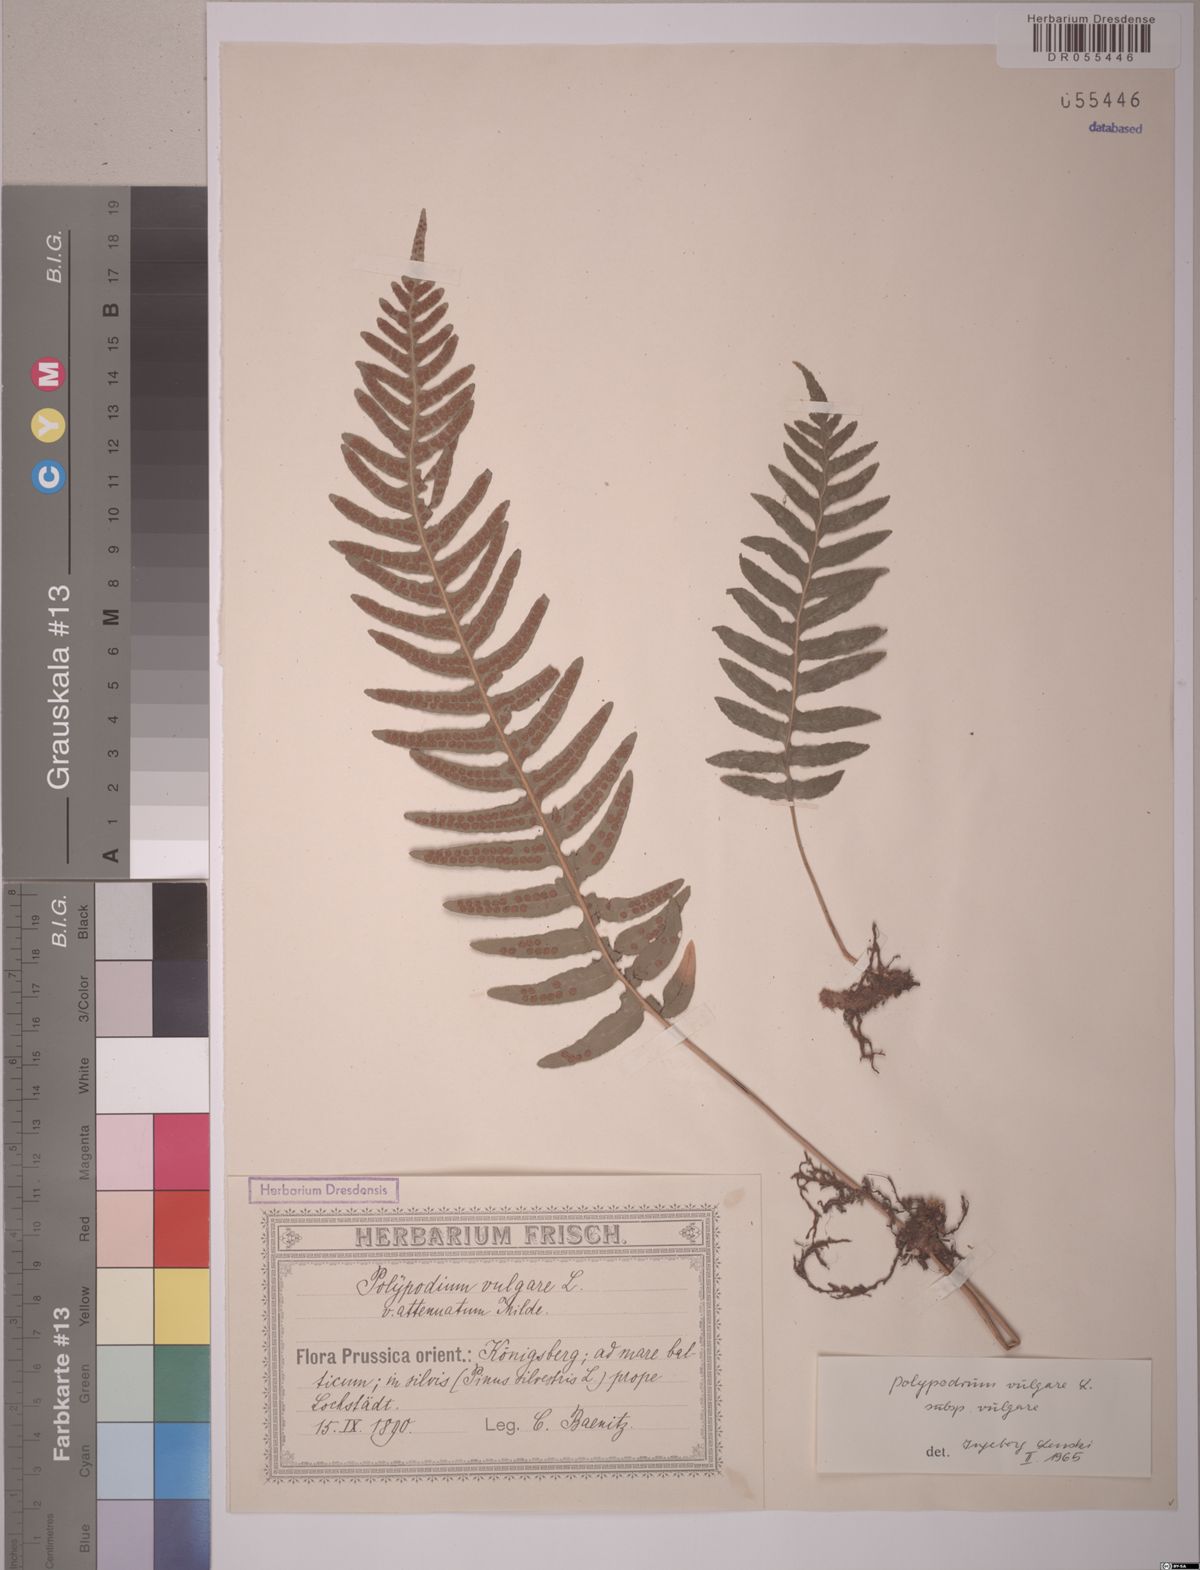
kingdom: Plantae
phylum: Tracheophyta
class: Polypodiopsida
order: Polypodiales
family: Polypodiaceae
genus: Polypodium
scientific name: Polypodium vulgare
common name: Common polypody
